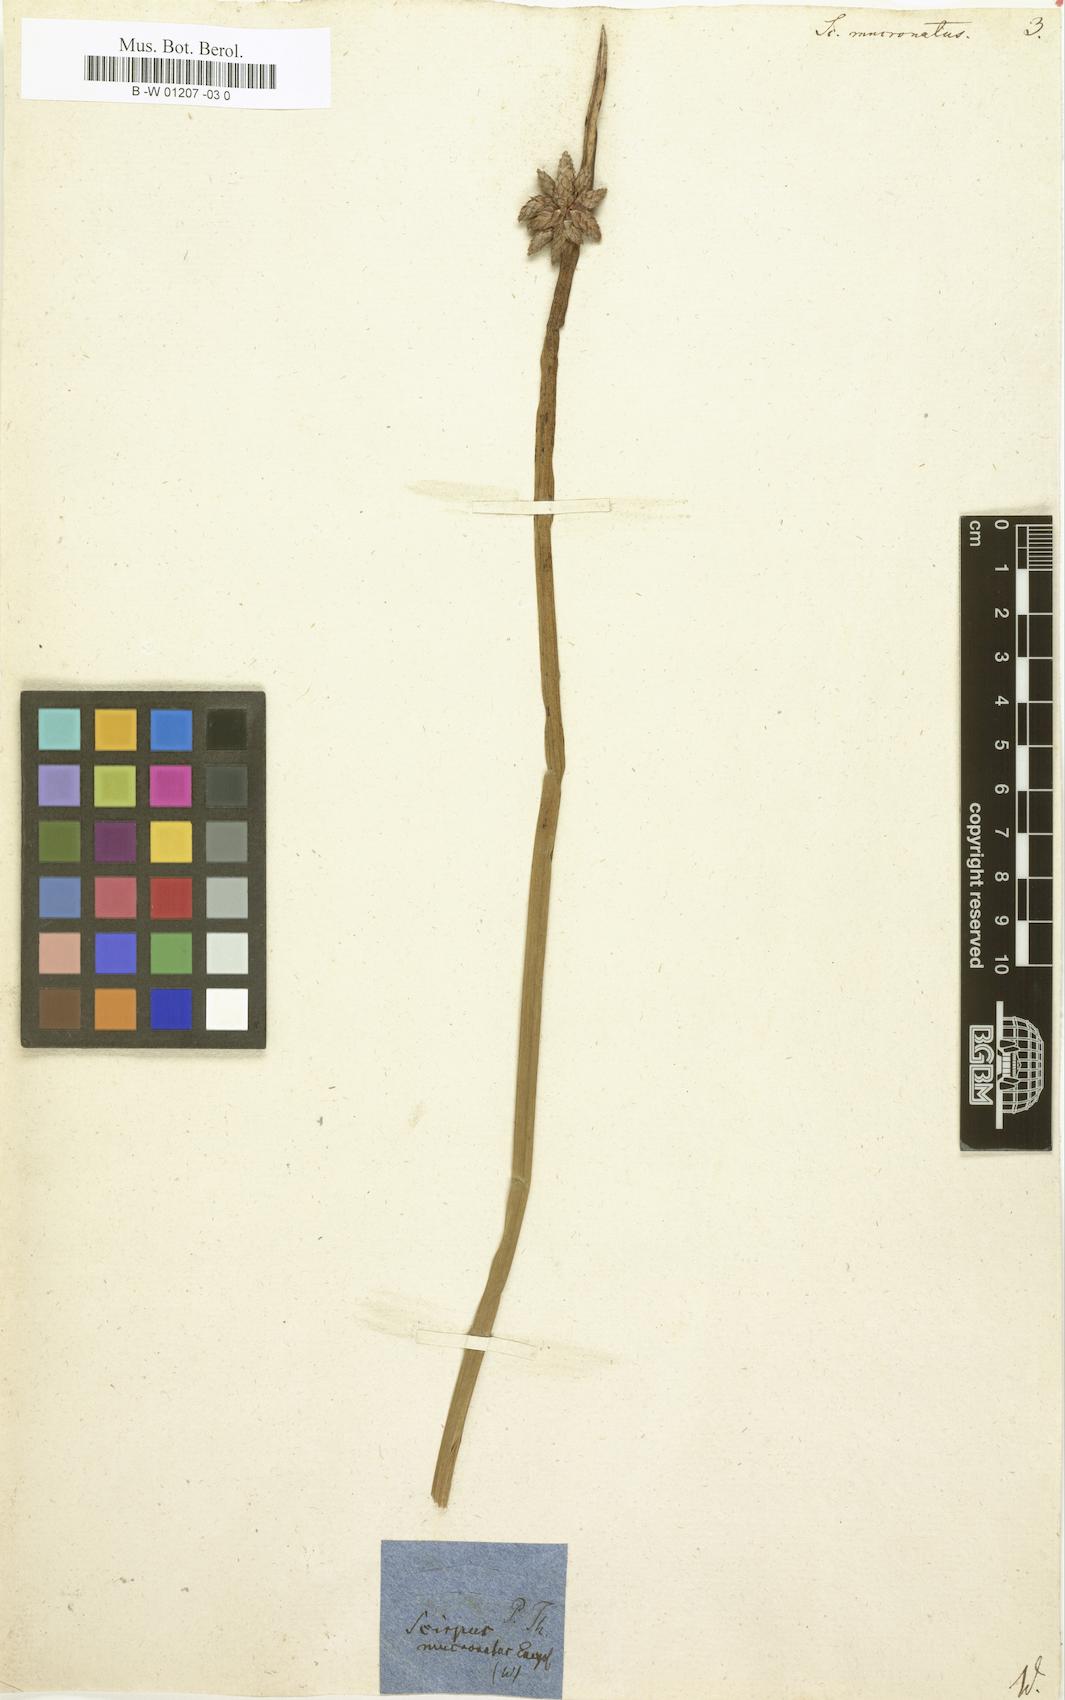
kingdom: Plantae
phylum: Tracheophyta
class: Liliopsida
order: Poales
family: Cyperaceae
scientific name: Cyperaceae
